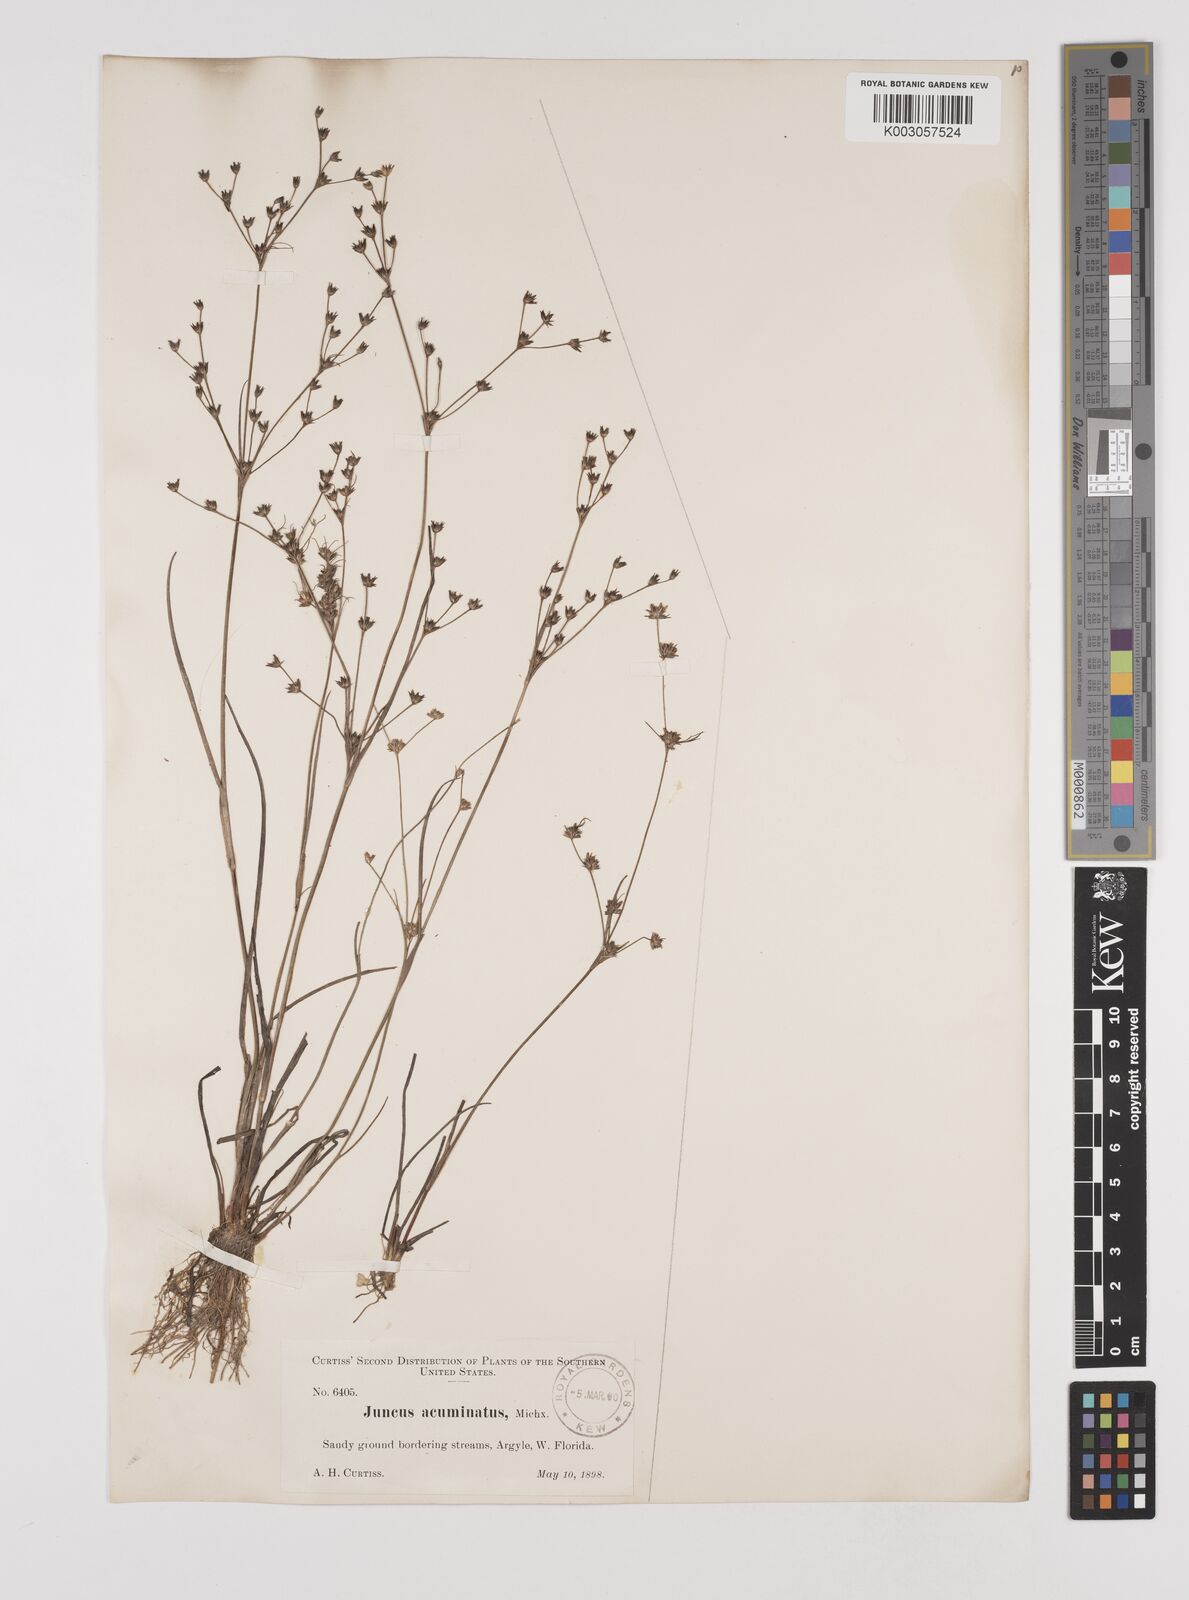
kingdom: Plantae
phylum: Tracheophyta
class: Liliopsida
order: Poales
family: Juncaceae
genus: Juncus
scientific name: Juncus debilis
